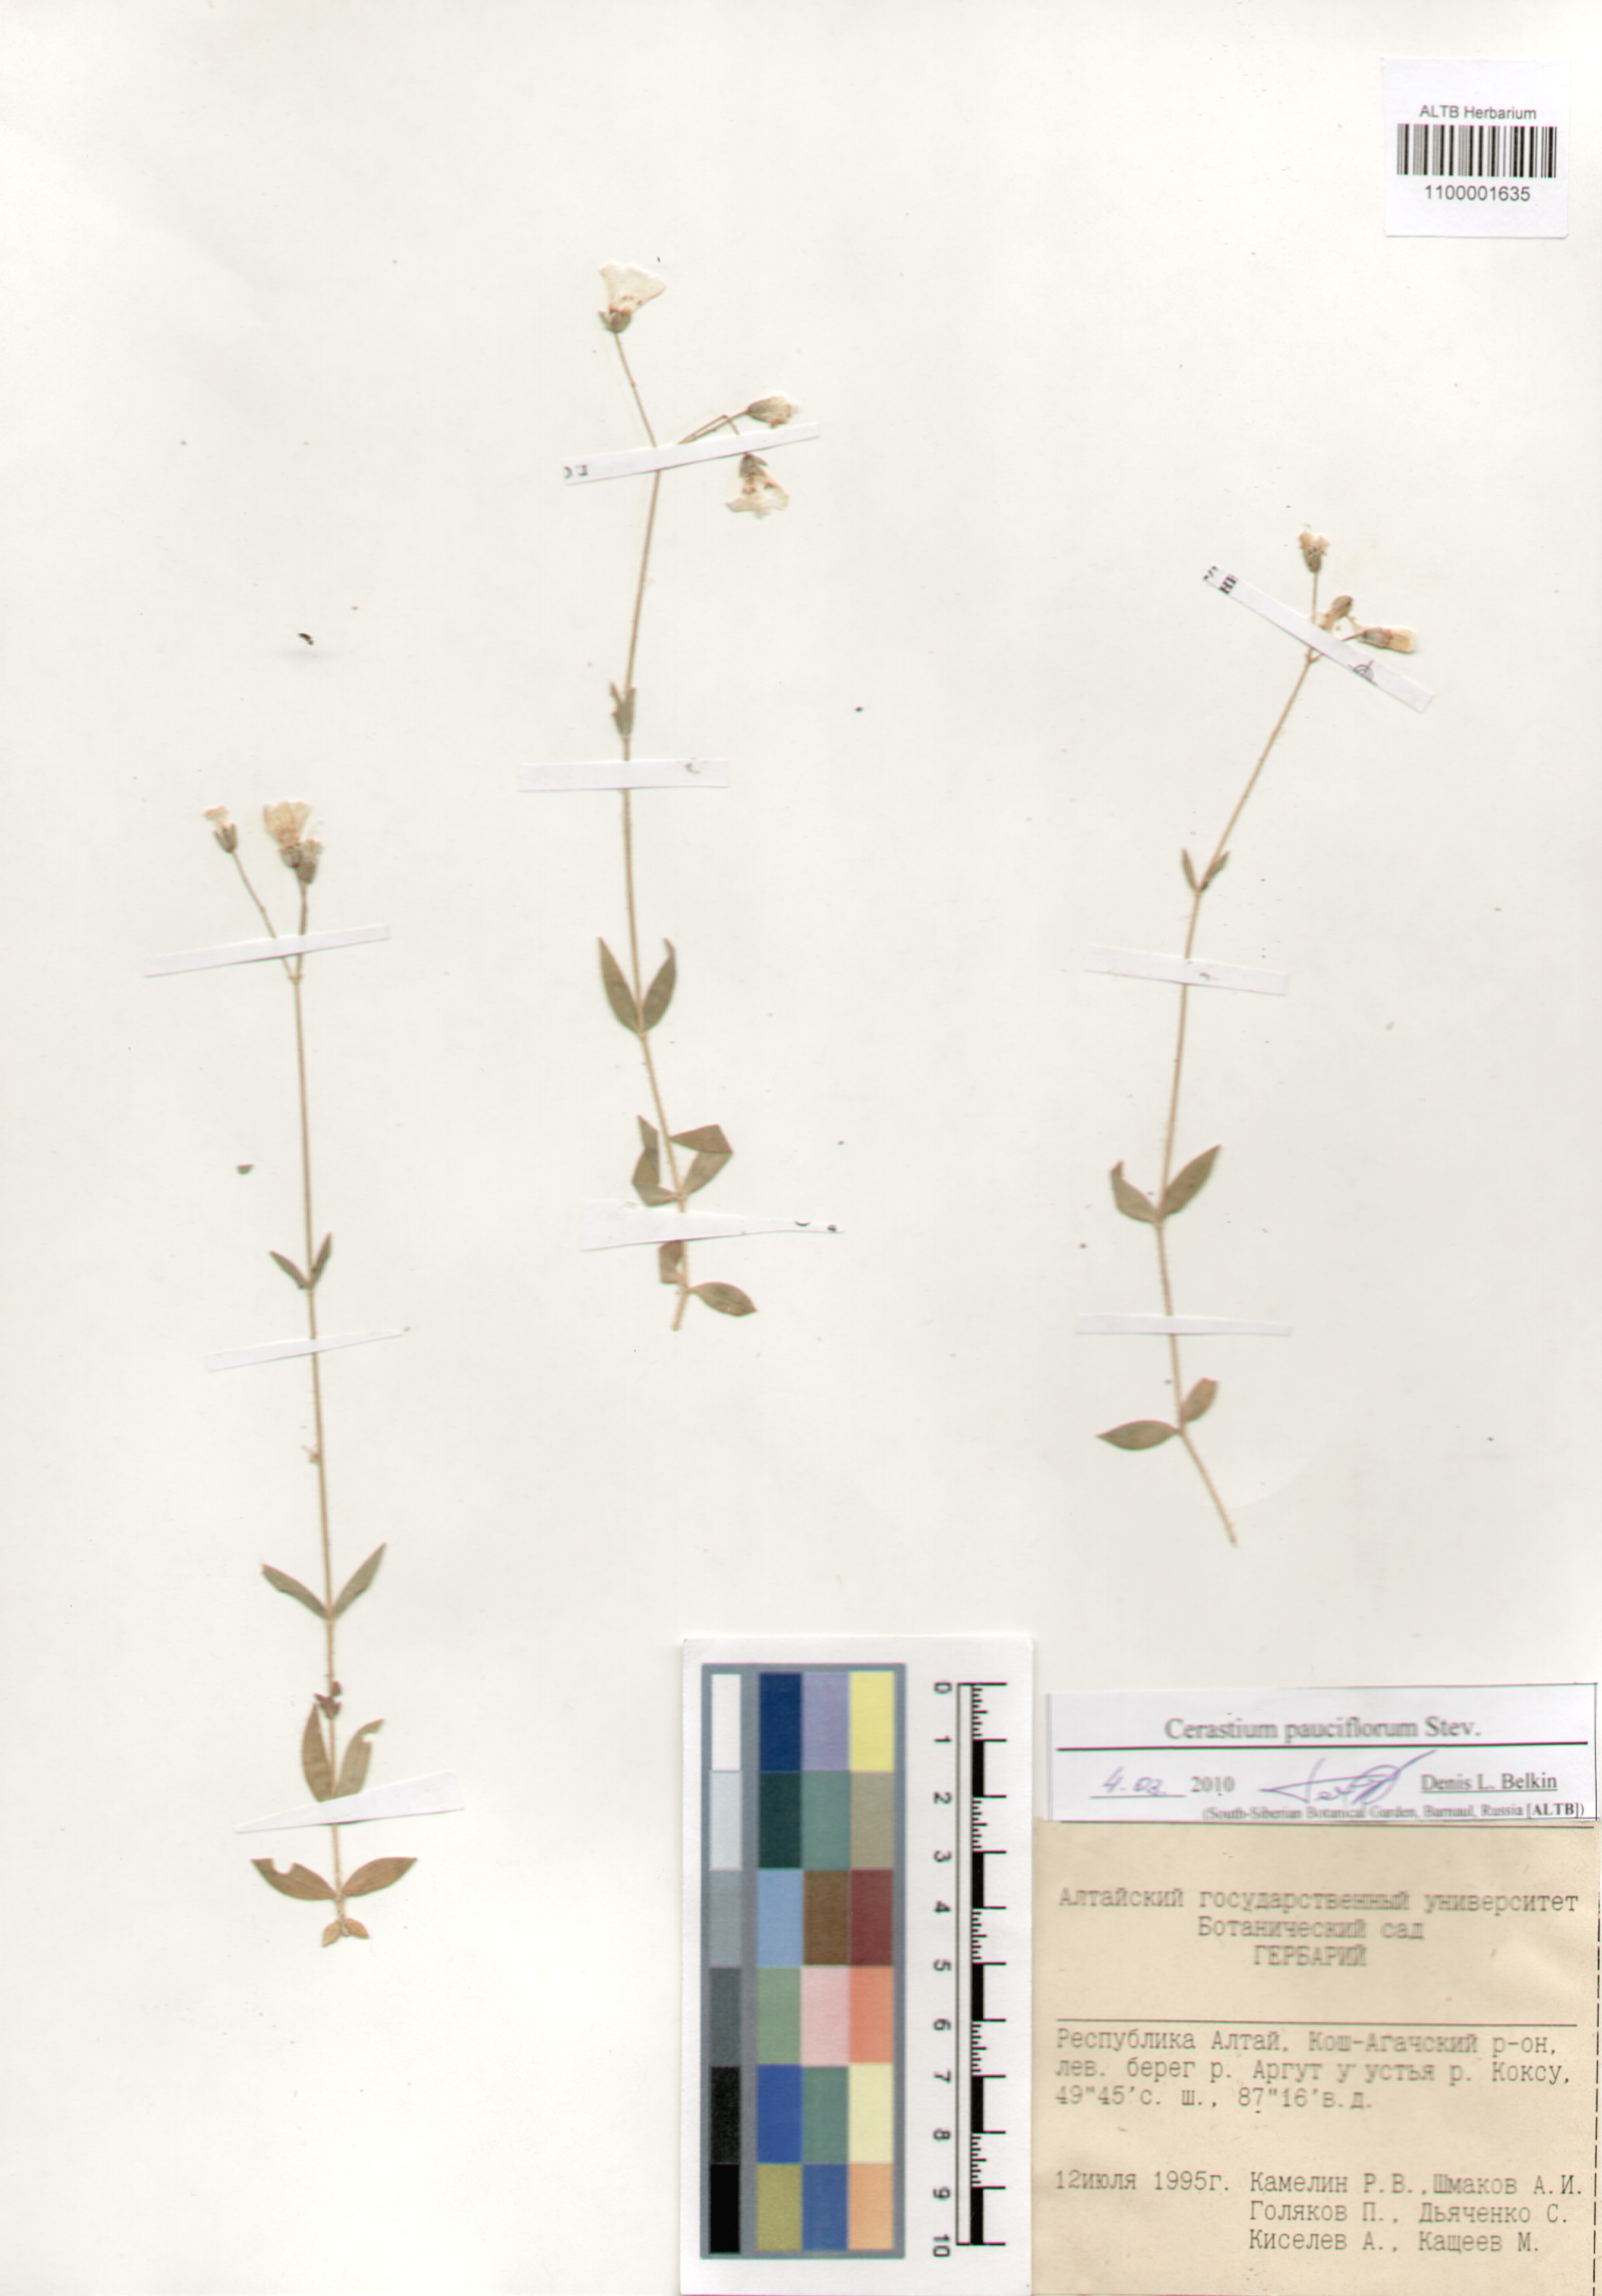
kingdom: Plantae
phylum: Tracheophyta
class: Magnoliopsida
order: Caryophyllales
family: Caryophyllaceae
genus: Cerastium
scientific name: Cerastium pauciflorum
